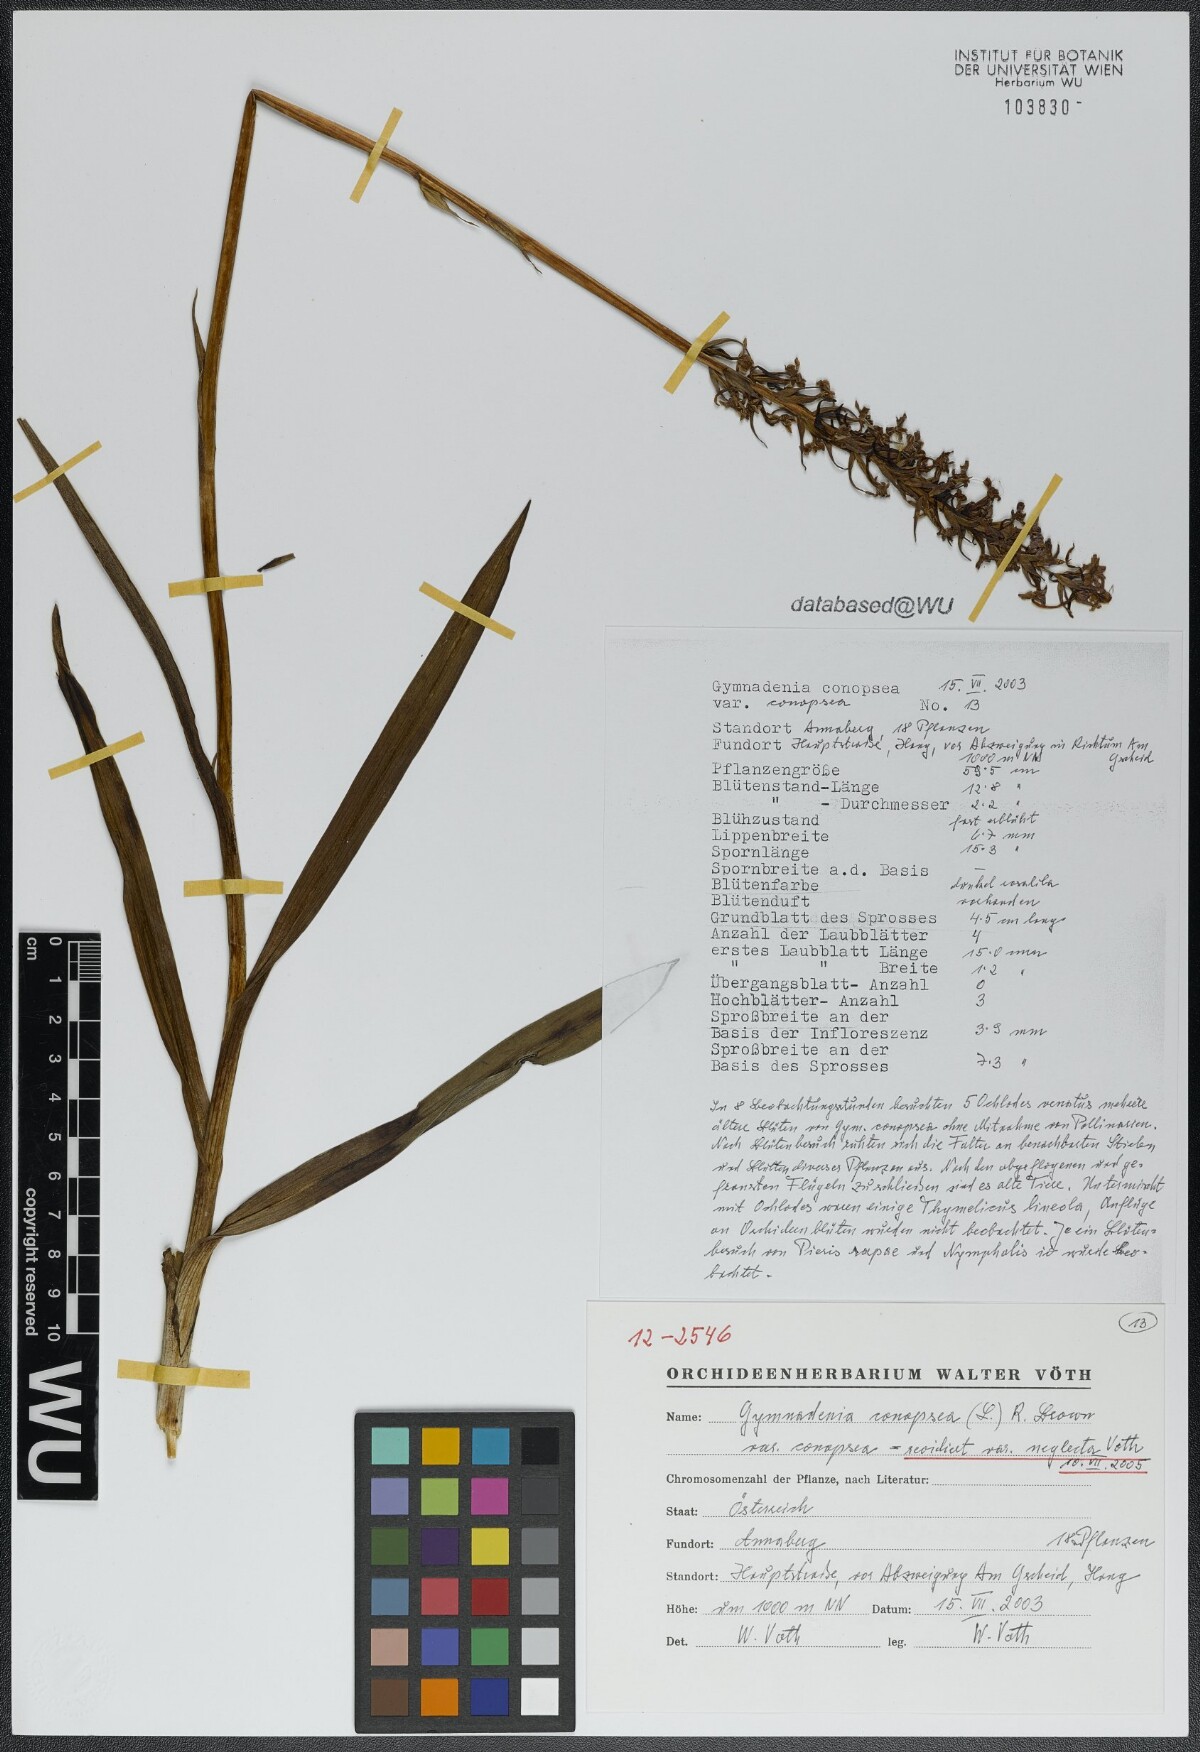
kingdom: Plantae
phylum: Tracheophyta
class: Liliopsida
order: Asparagales
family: Orchidaceae
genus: Gymnadenia
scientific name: Gymnadenia conopsea
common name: Fragrant orchid
